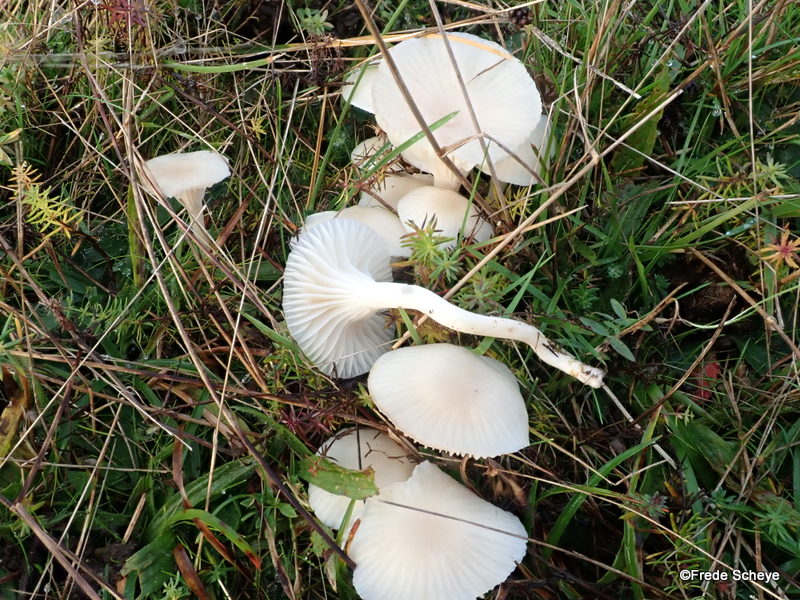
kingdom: Fungi
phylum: Basidiomycota
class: Agaricomycetes
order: Agaricales
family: Hygrophoraceae
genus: Cuphophyllus
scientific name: Cuphophyllus virgineus
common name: snehvid vokshat
